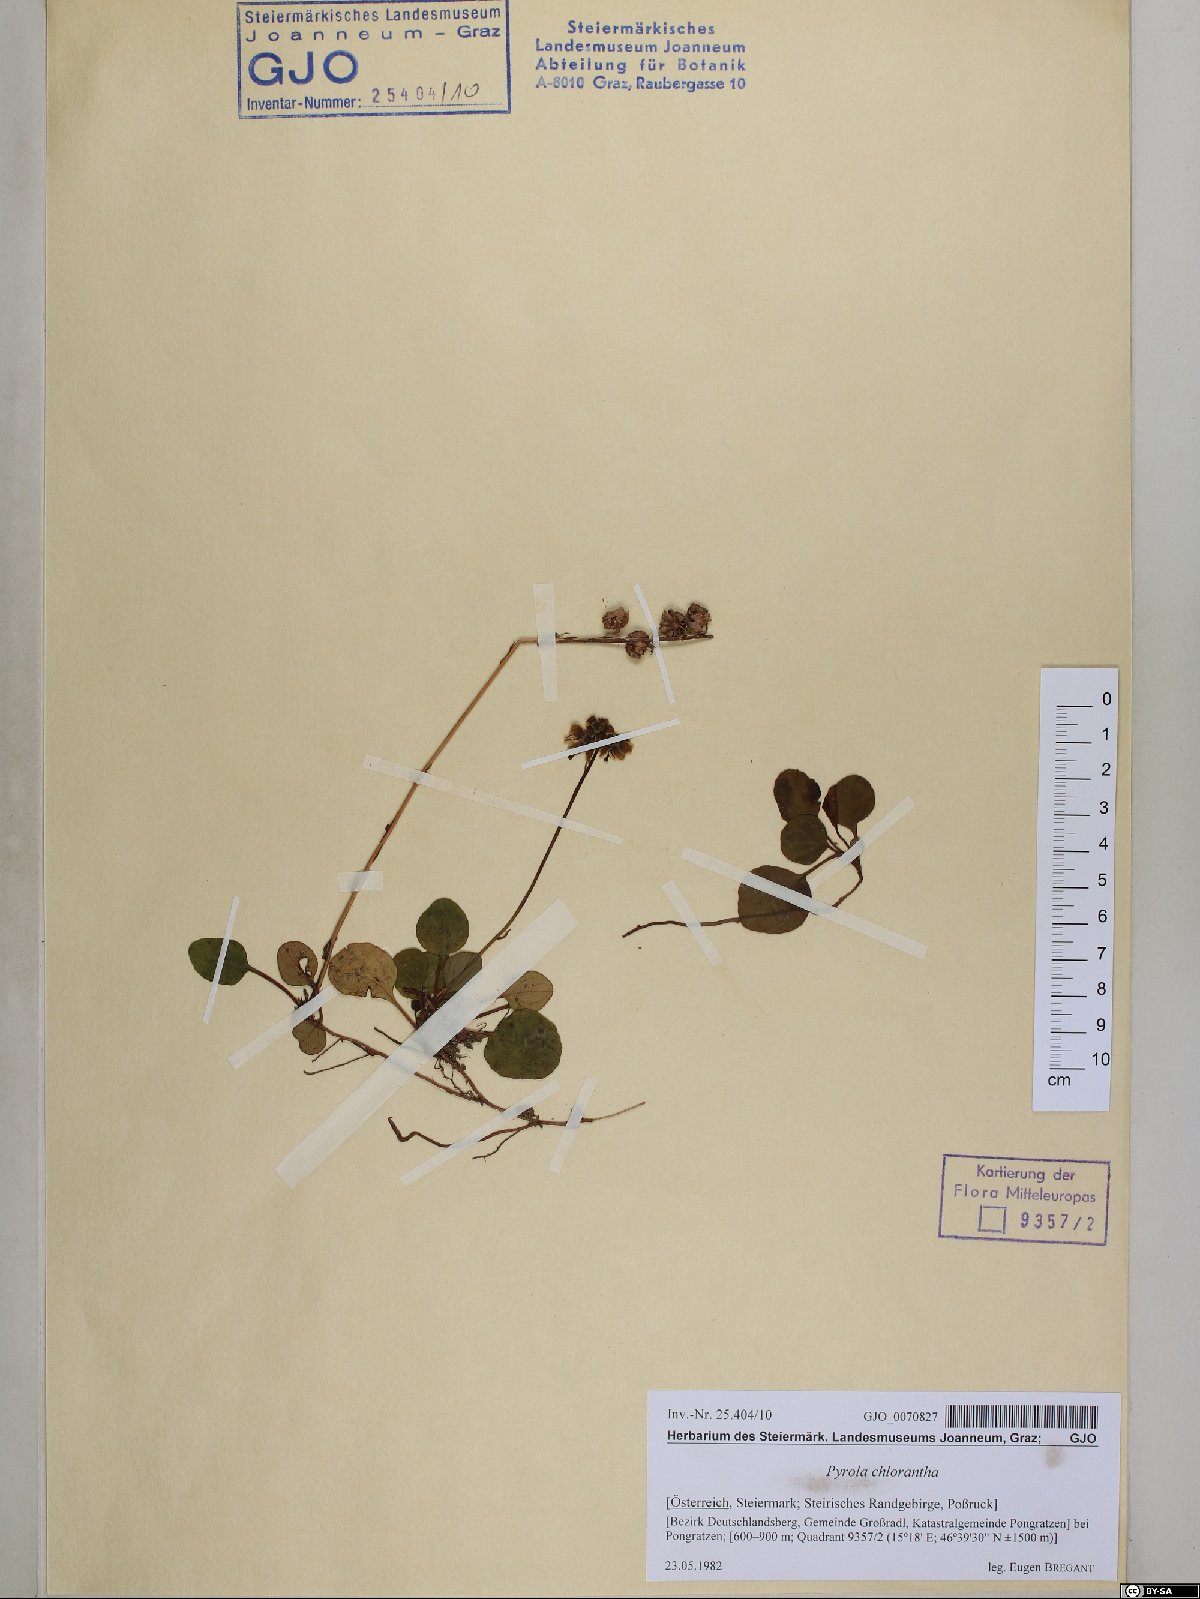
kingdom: Plantae
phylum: Tracheophyta
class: Magnoliopsida
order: Ericales
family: Ericaceae
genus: Pyrola
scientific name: Pyrola chlorantha
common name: Green wintergreen
